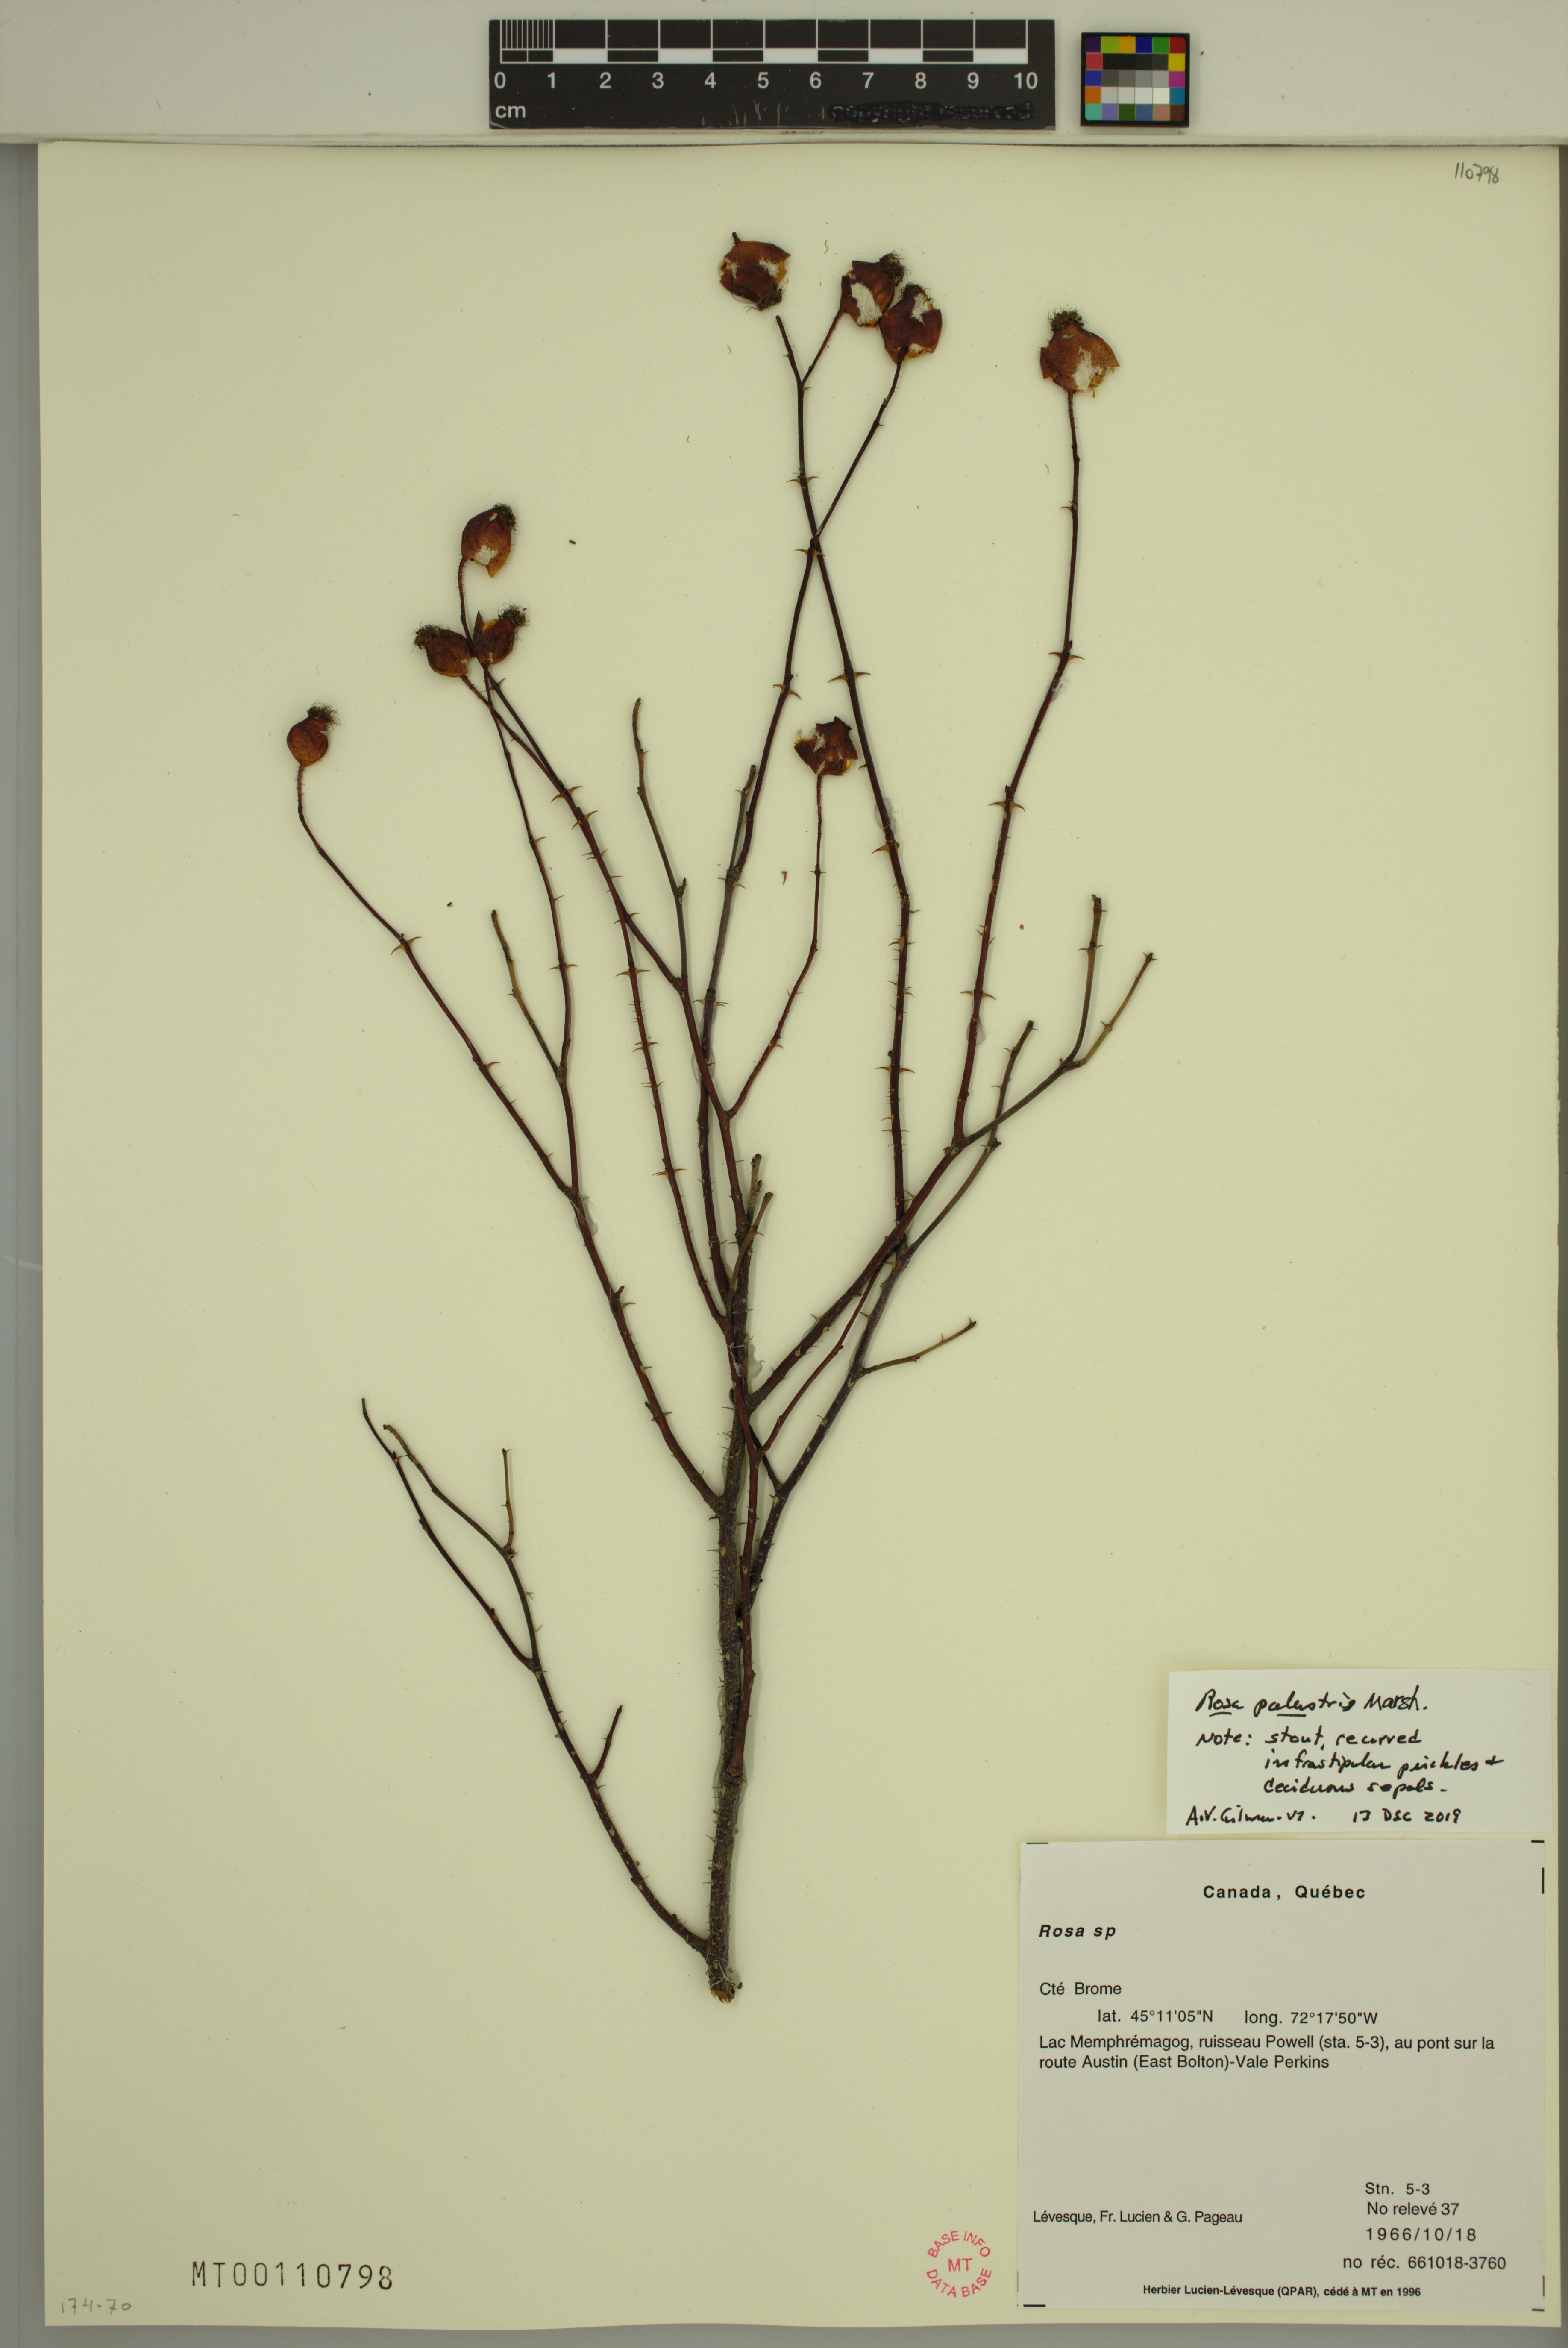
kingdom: Plantae
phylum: Tracheophyta
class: Magnoliopsida
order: Rosales
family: Rosaceae
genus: Rosa
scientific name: Rosa palustris
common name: Swamp rose
